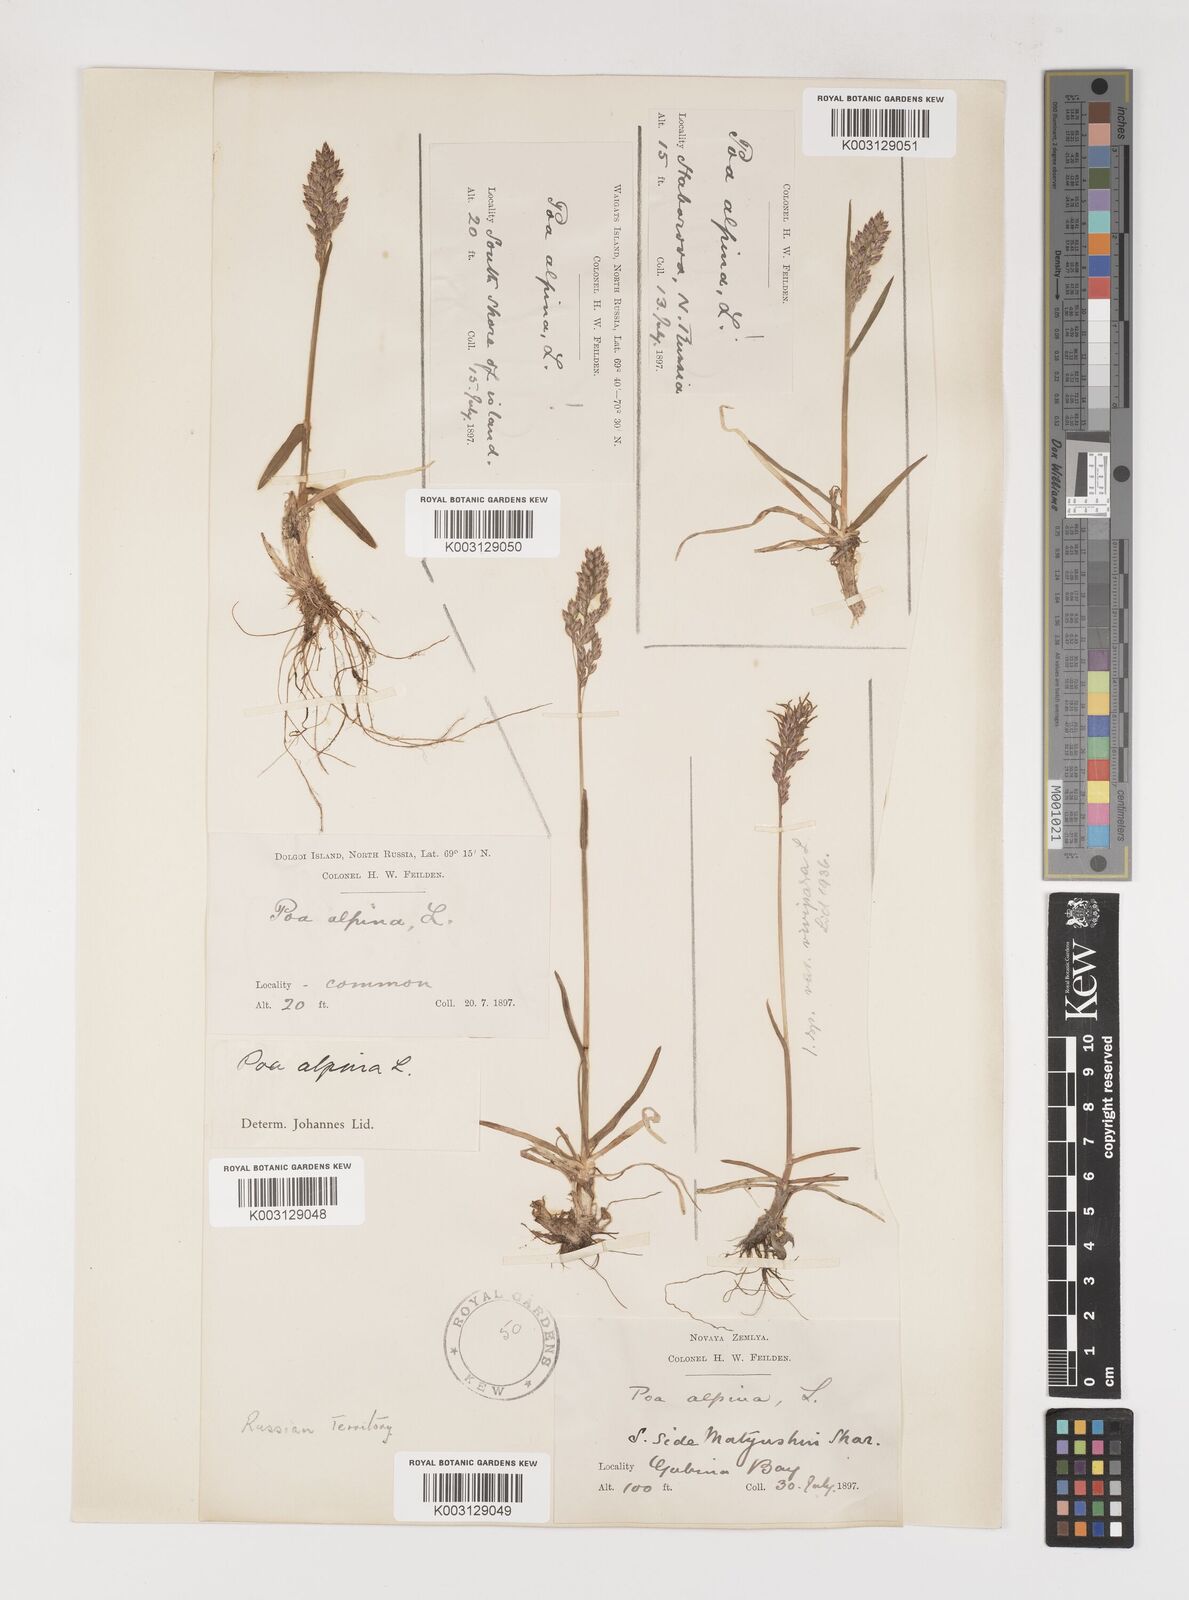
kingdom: Plantae
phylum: Tracheophyta
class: Liliopsida
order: Poales
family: Poaceae
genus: Poa
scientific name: Poa alpina
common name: Alpine bluegrass
